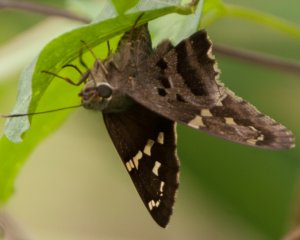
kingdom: Animalia
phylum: Arthropoda
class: Insecta
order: Lepidoptera
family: Hesperiidae
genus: Urbanus
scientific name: Urbanus proteus
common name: Long-tailed Skipper
